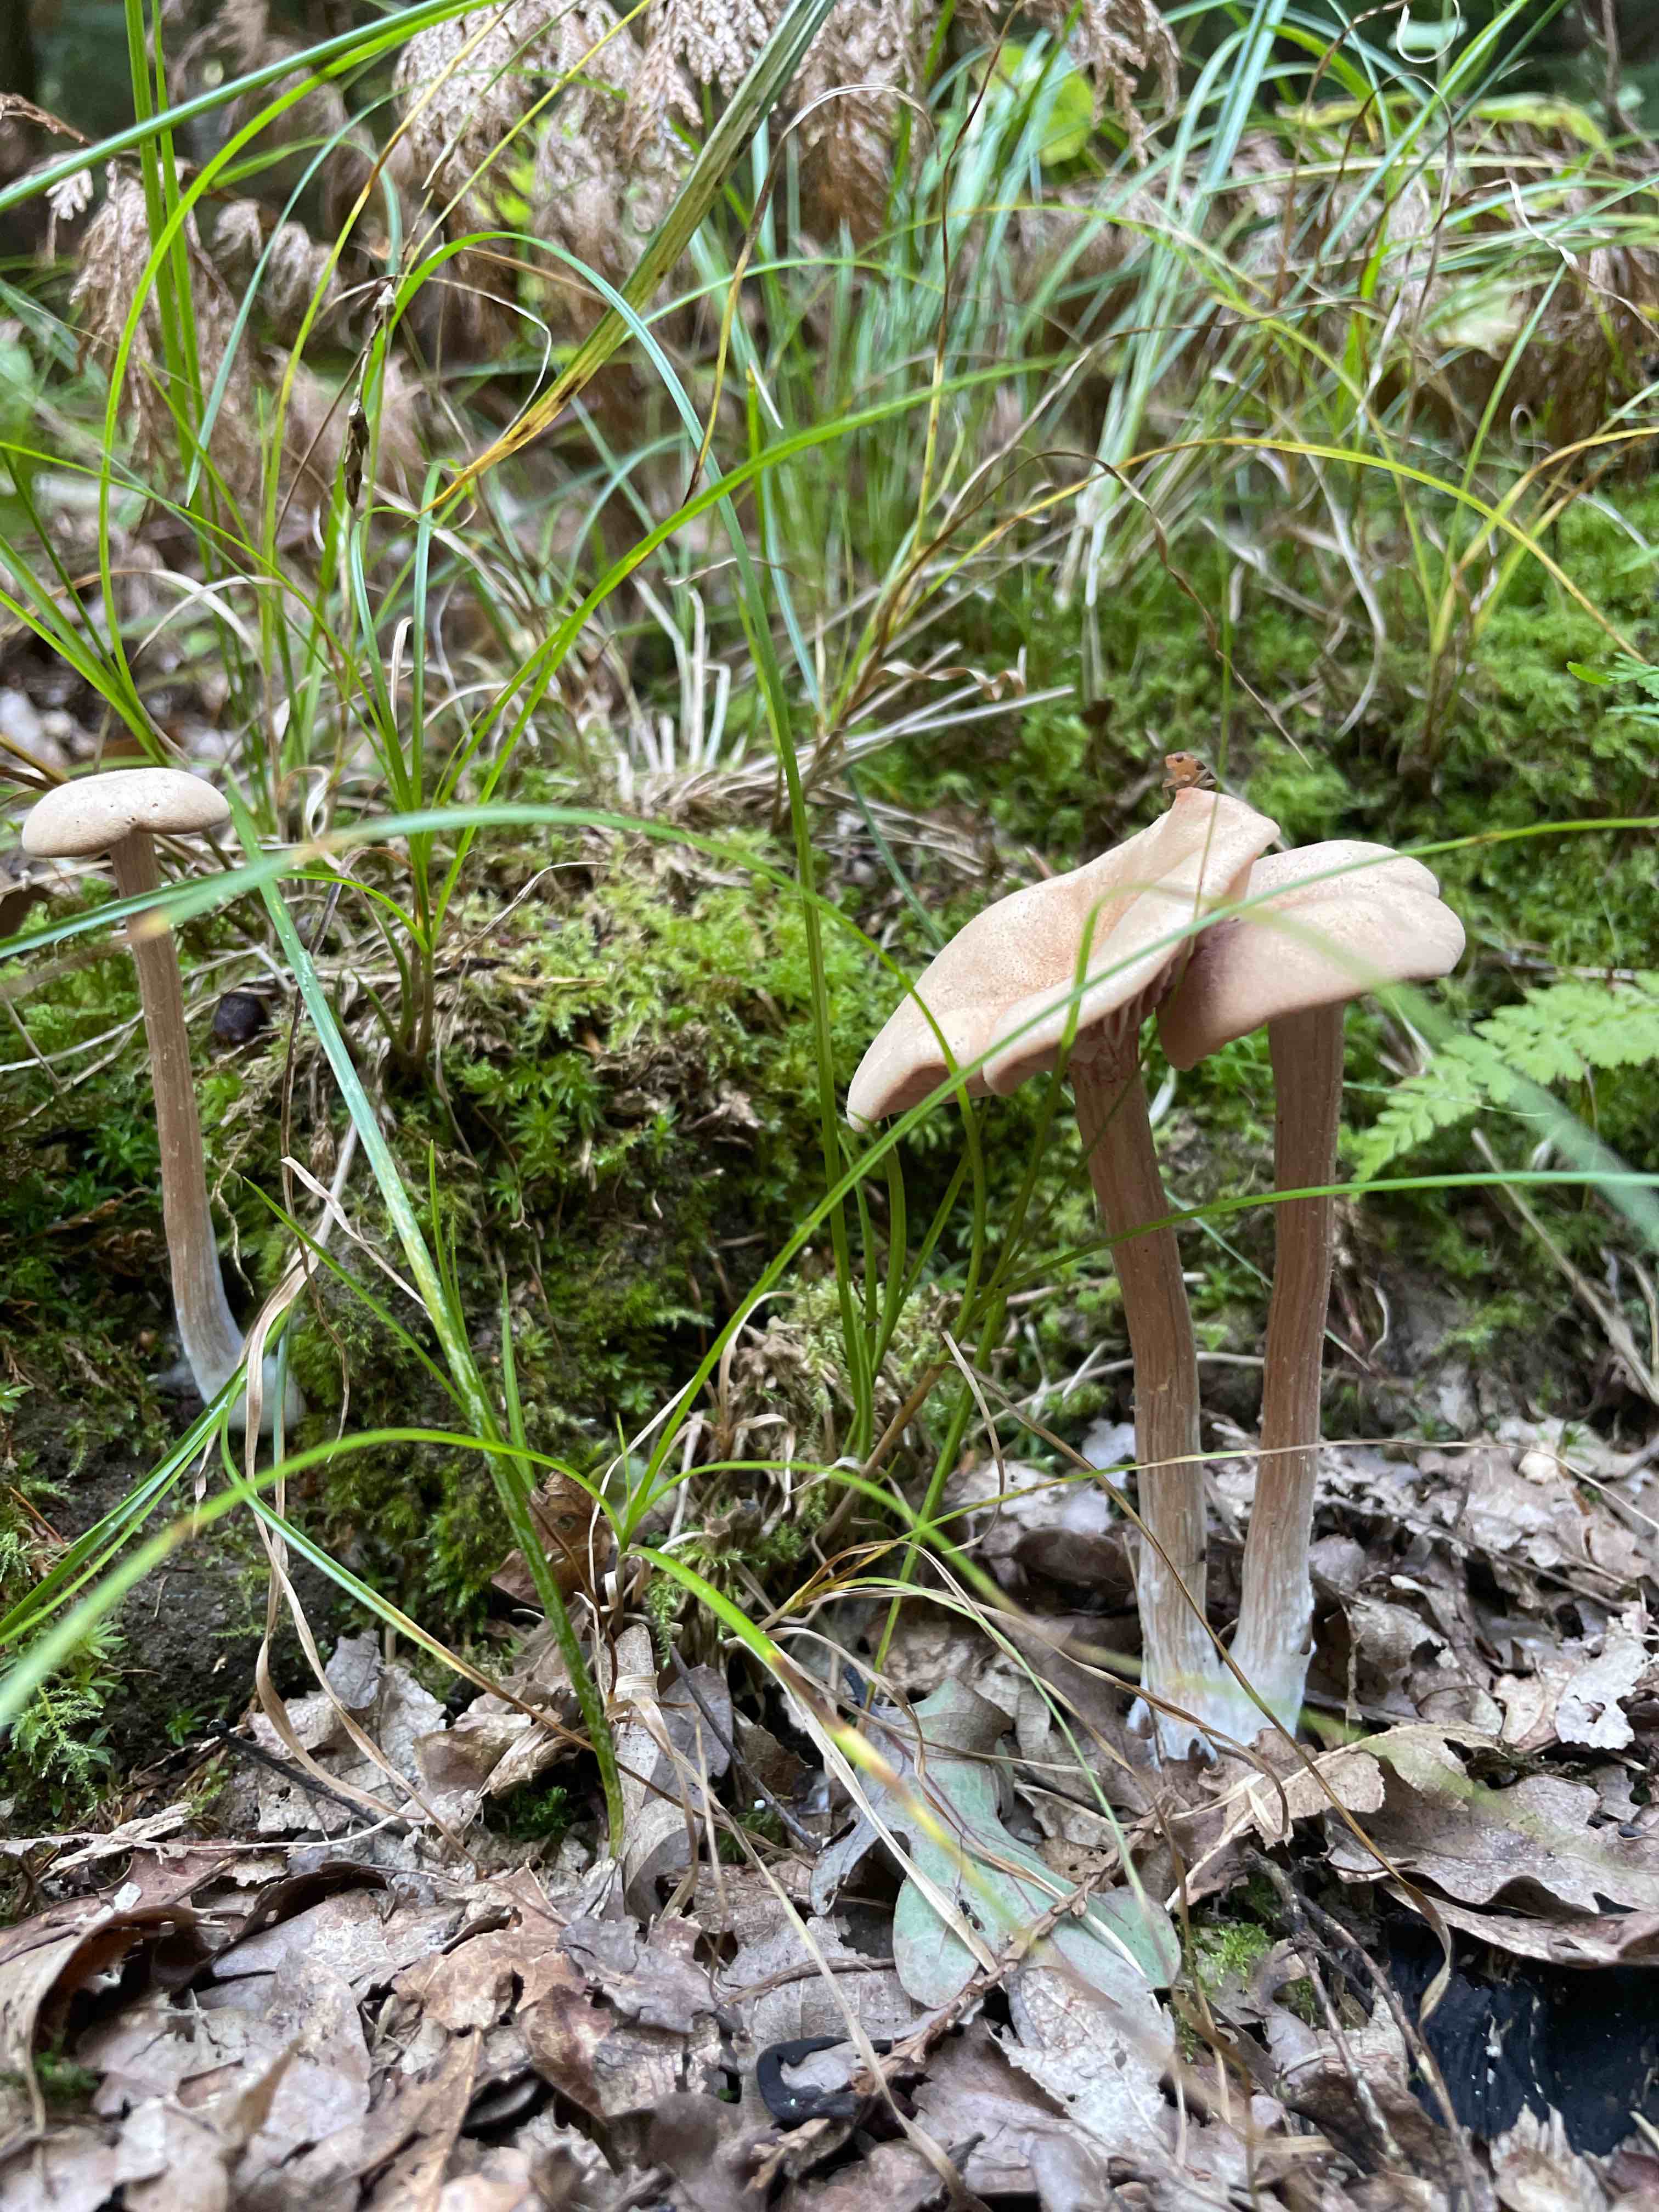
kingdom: Fungi
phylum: Basidiomycota
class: Agaricomycetes
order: Agaricales
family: Hydnangiaceae
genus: Laccaria
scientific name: Laccaria
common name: ametysthat
